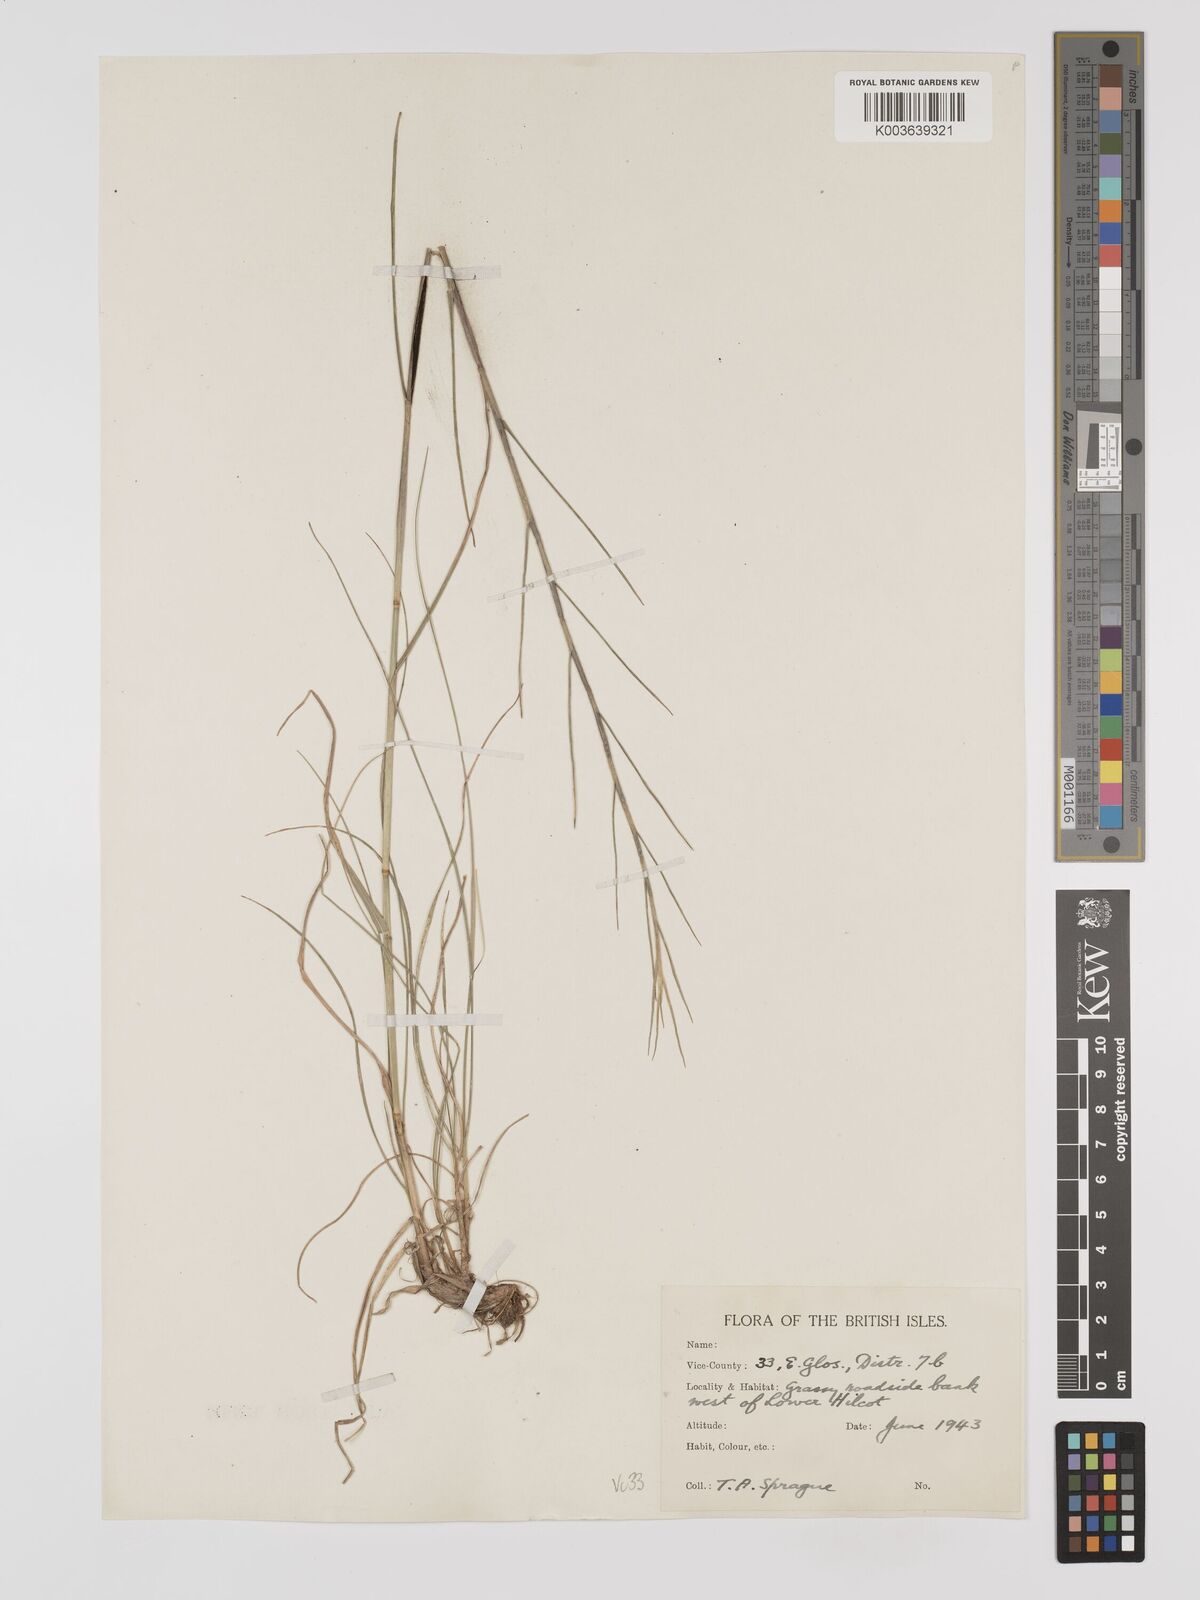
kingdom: Plantae
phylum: Tracheophyta
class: Liliopsida
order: Poales
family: Poaceae
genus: Bromus
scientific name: Bromus erectus
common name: Erect brome
